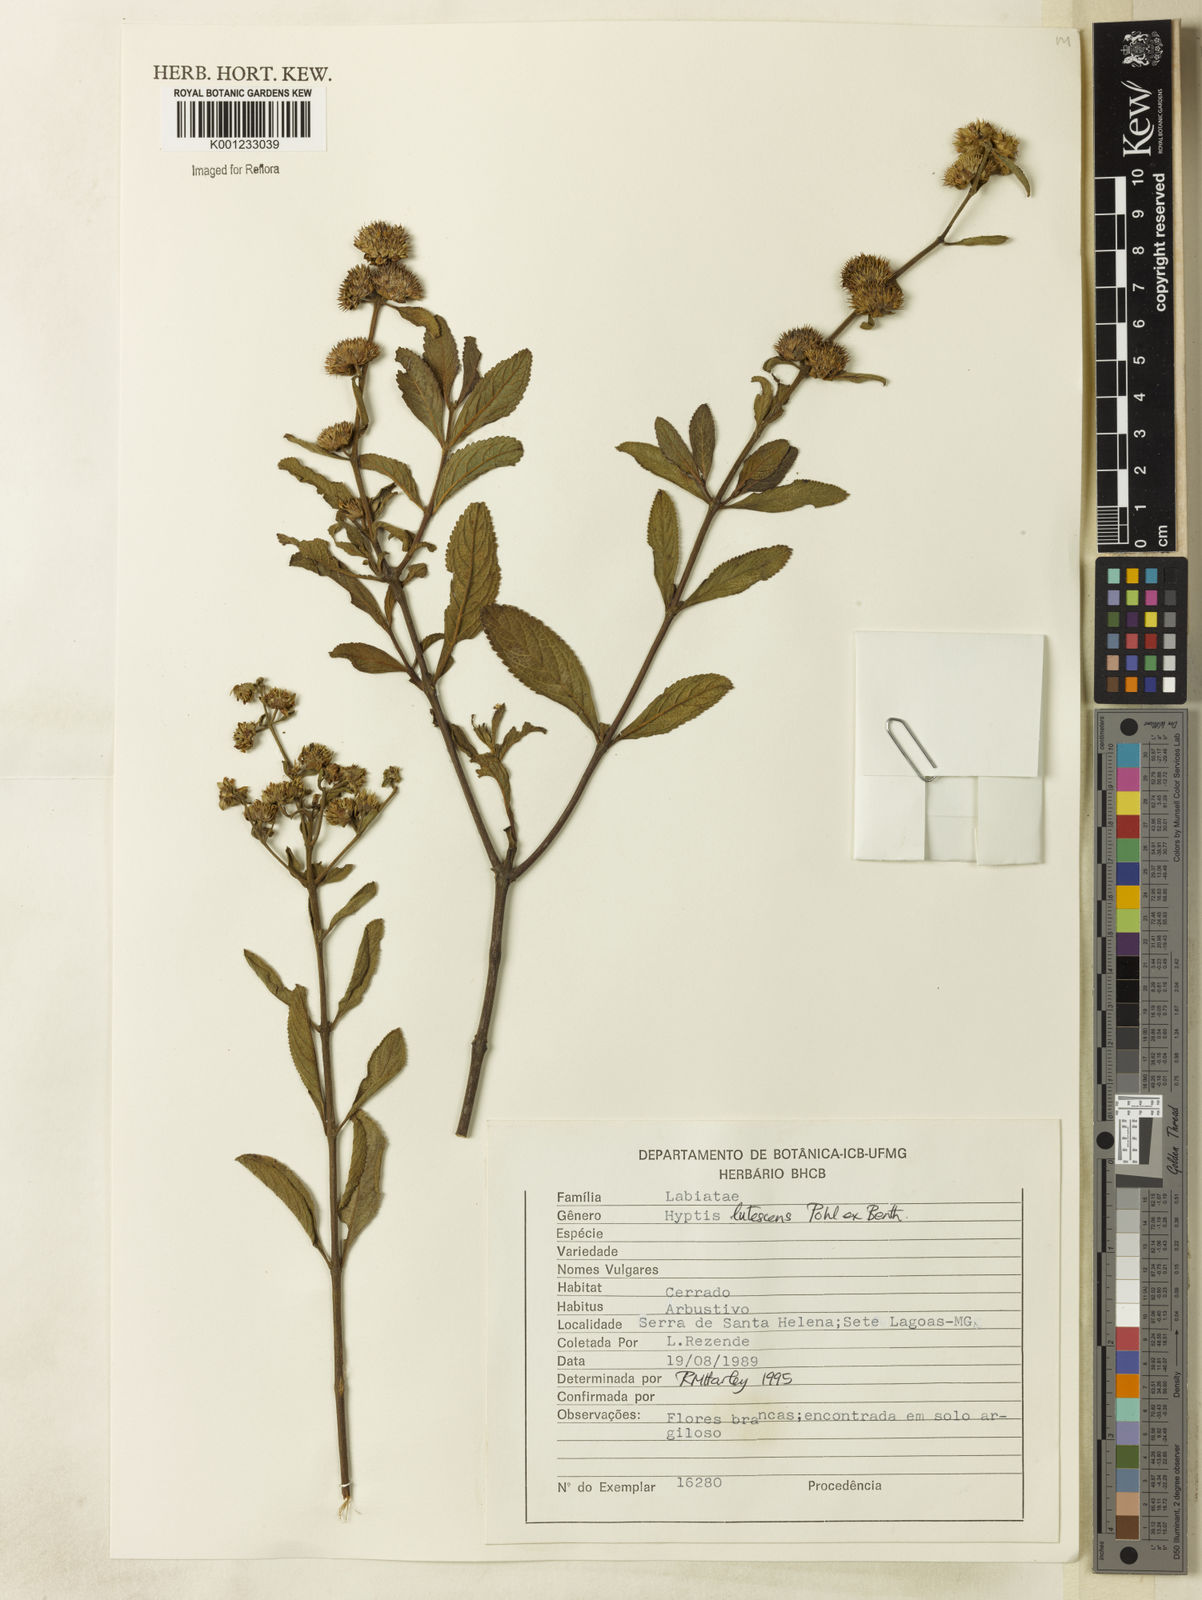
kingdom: Plantae
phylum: Tracheophyta
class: Magnoliopsida
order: Lamiales
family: Lamiaceae
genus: Hyptis
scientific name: Hyptis lutescens
